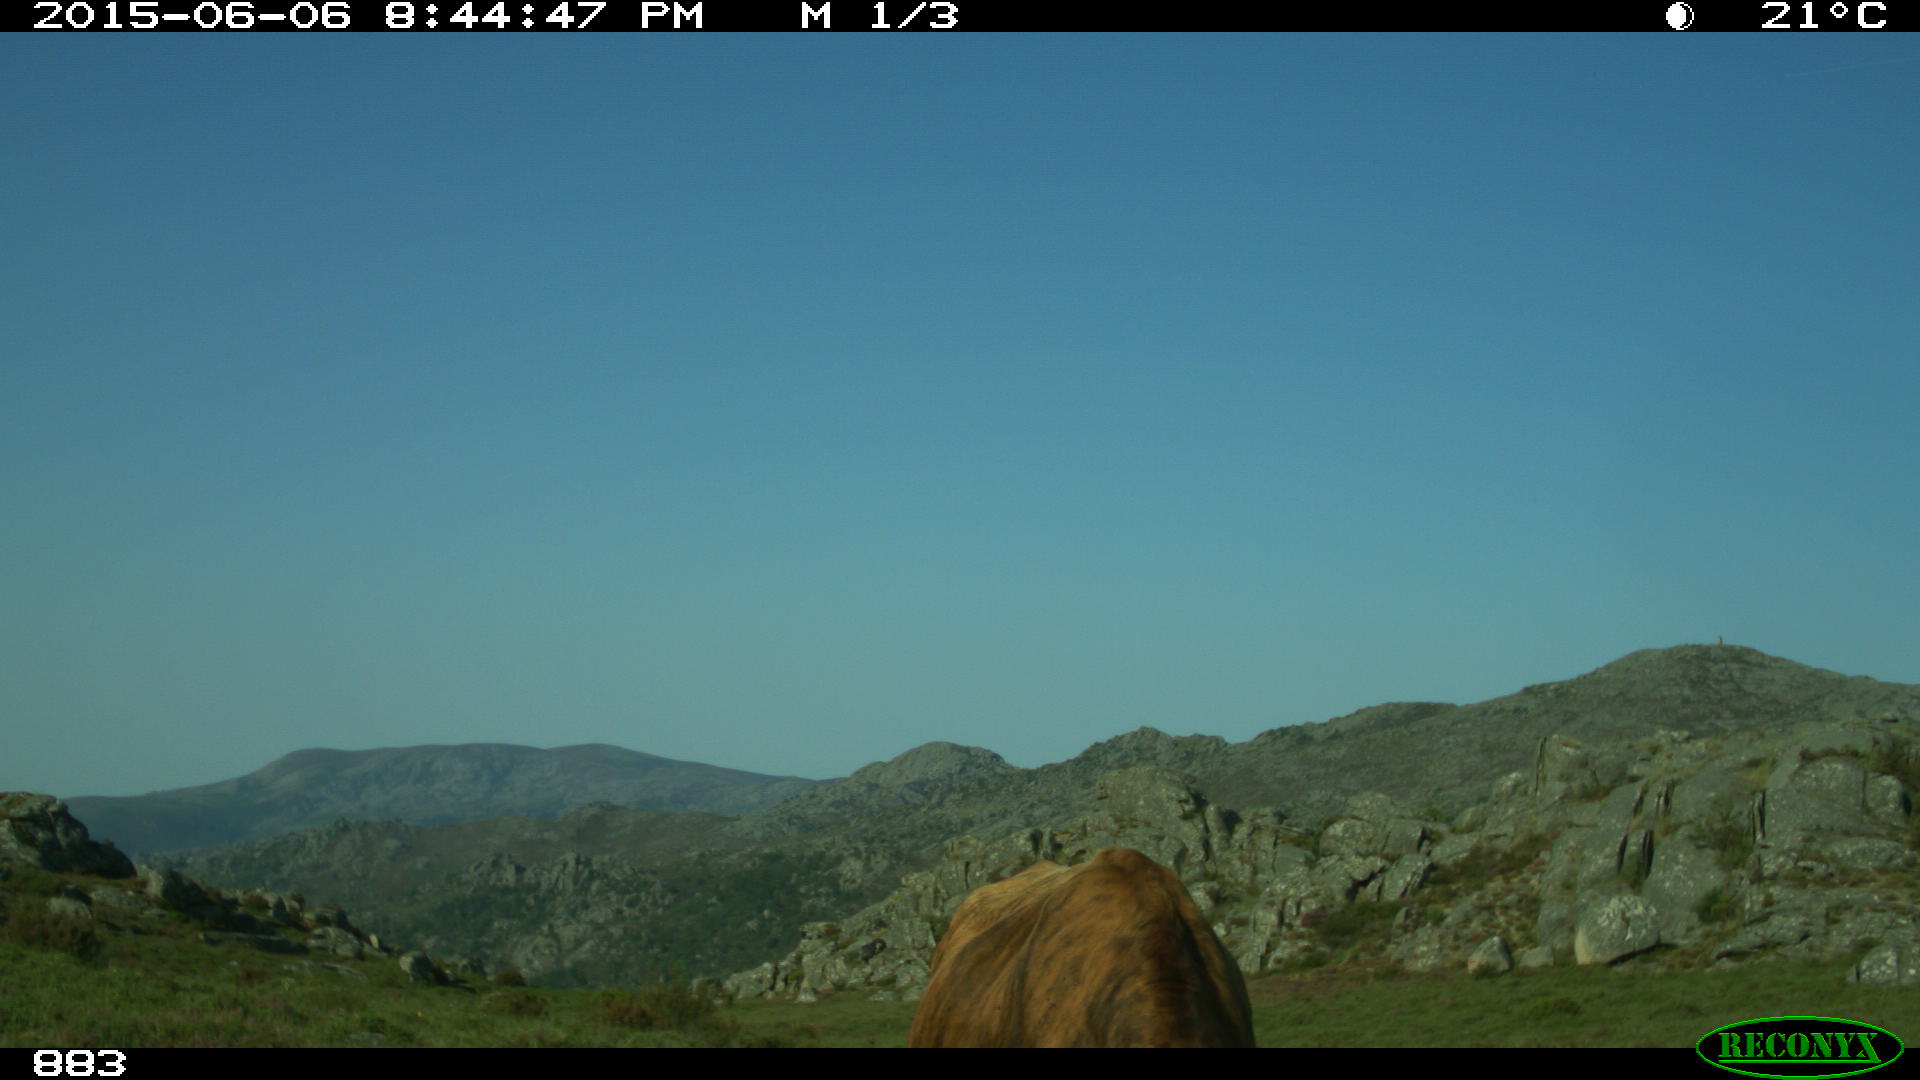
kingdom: Animalia
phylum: Chordata
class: Mammalia
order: Artiodactyla
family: Bovidae
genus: Bos
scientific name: Bos taurus
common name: Domesticated cattle
